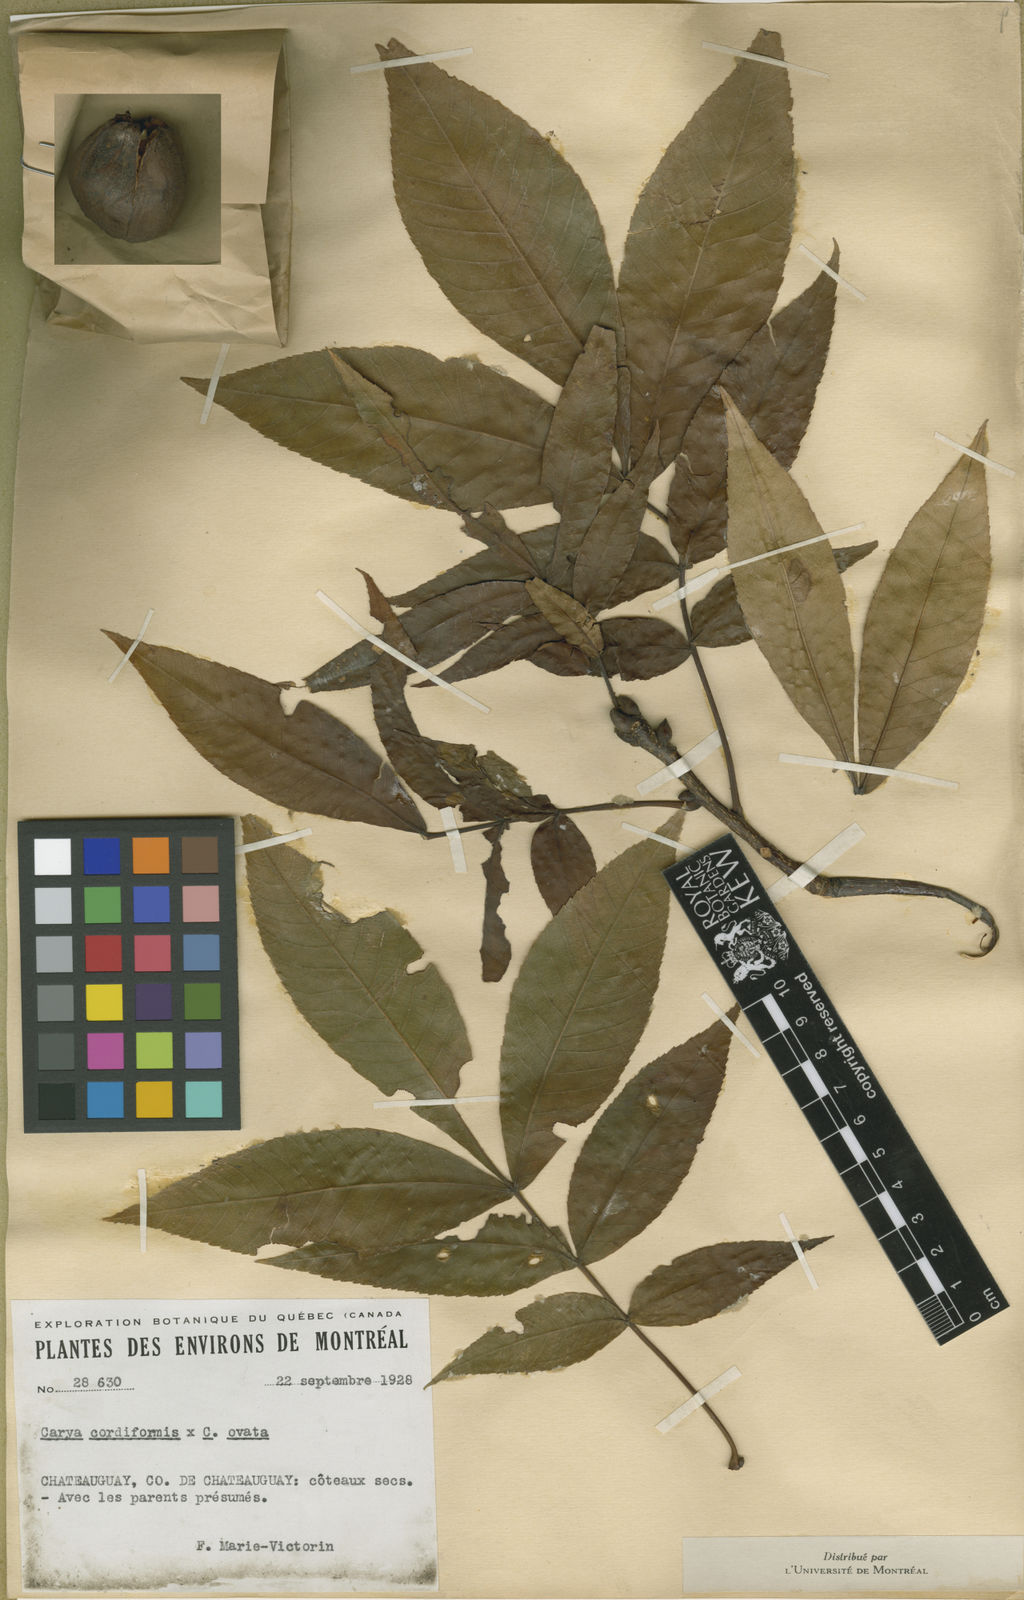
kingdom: Plantae
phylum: Tracheophyta
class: Magnoliopsida
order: Fagales
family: Juglandaceae
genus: Carya
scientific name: Carya
